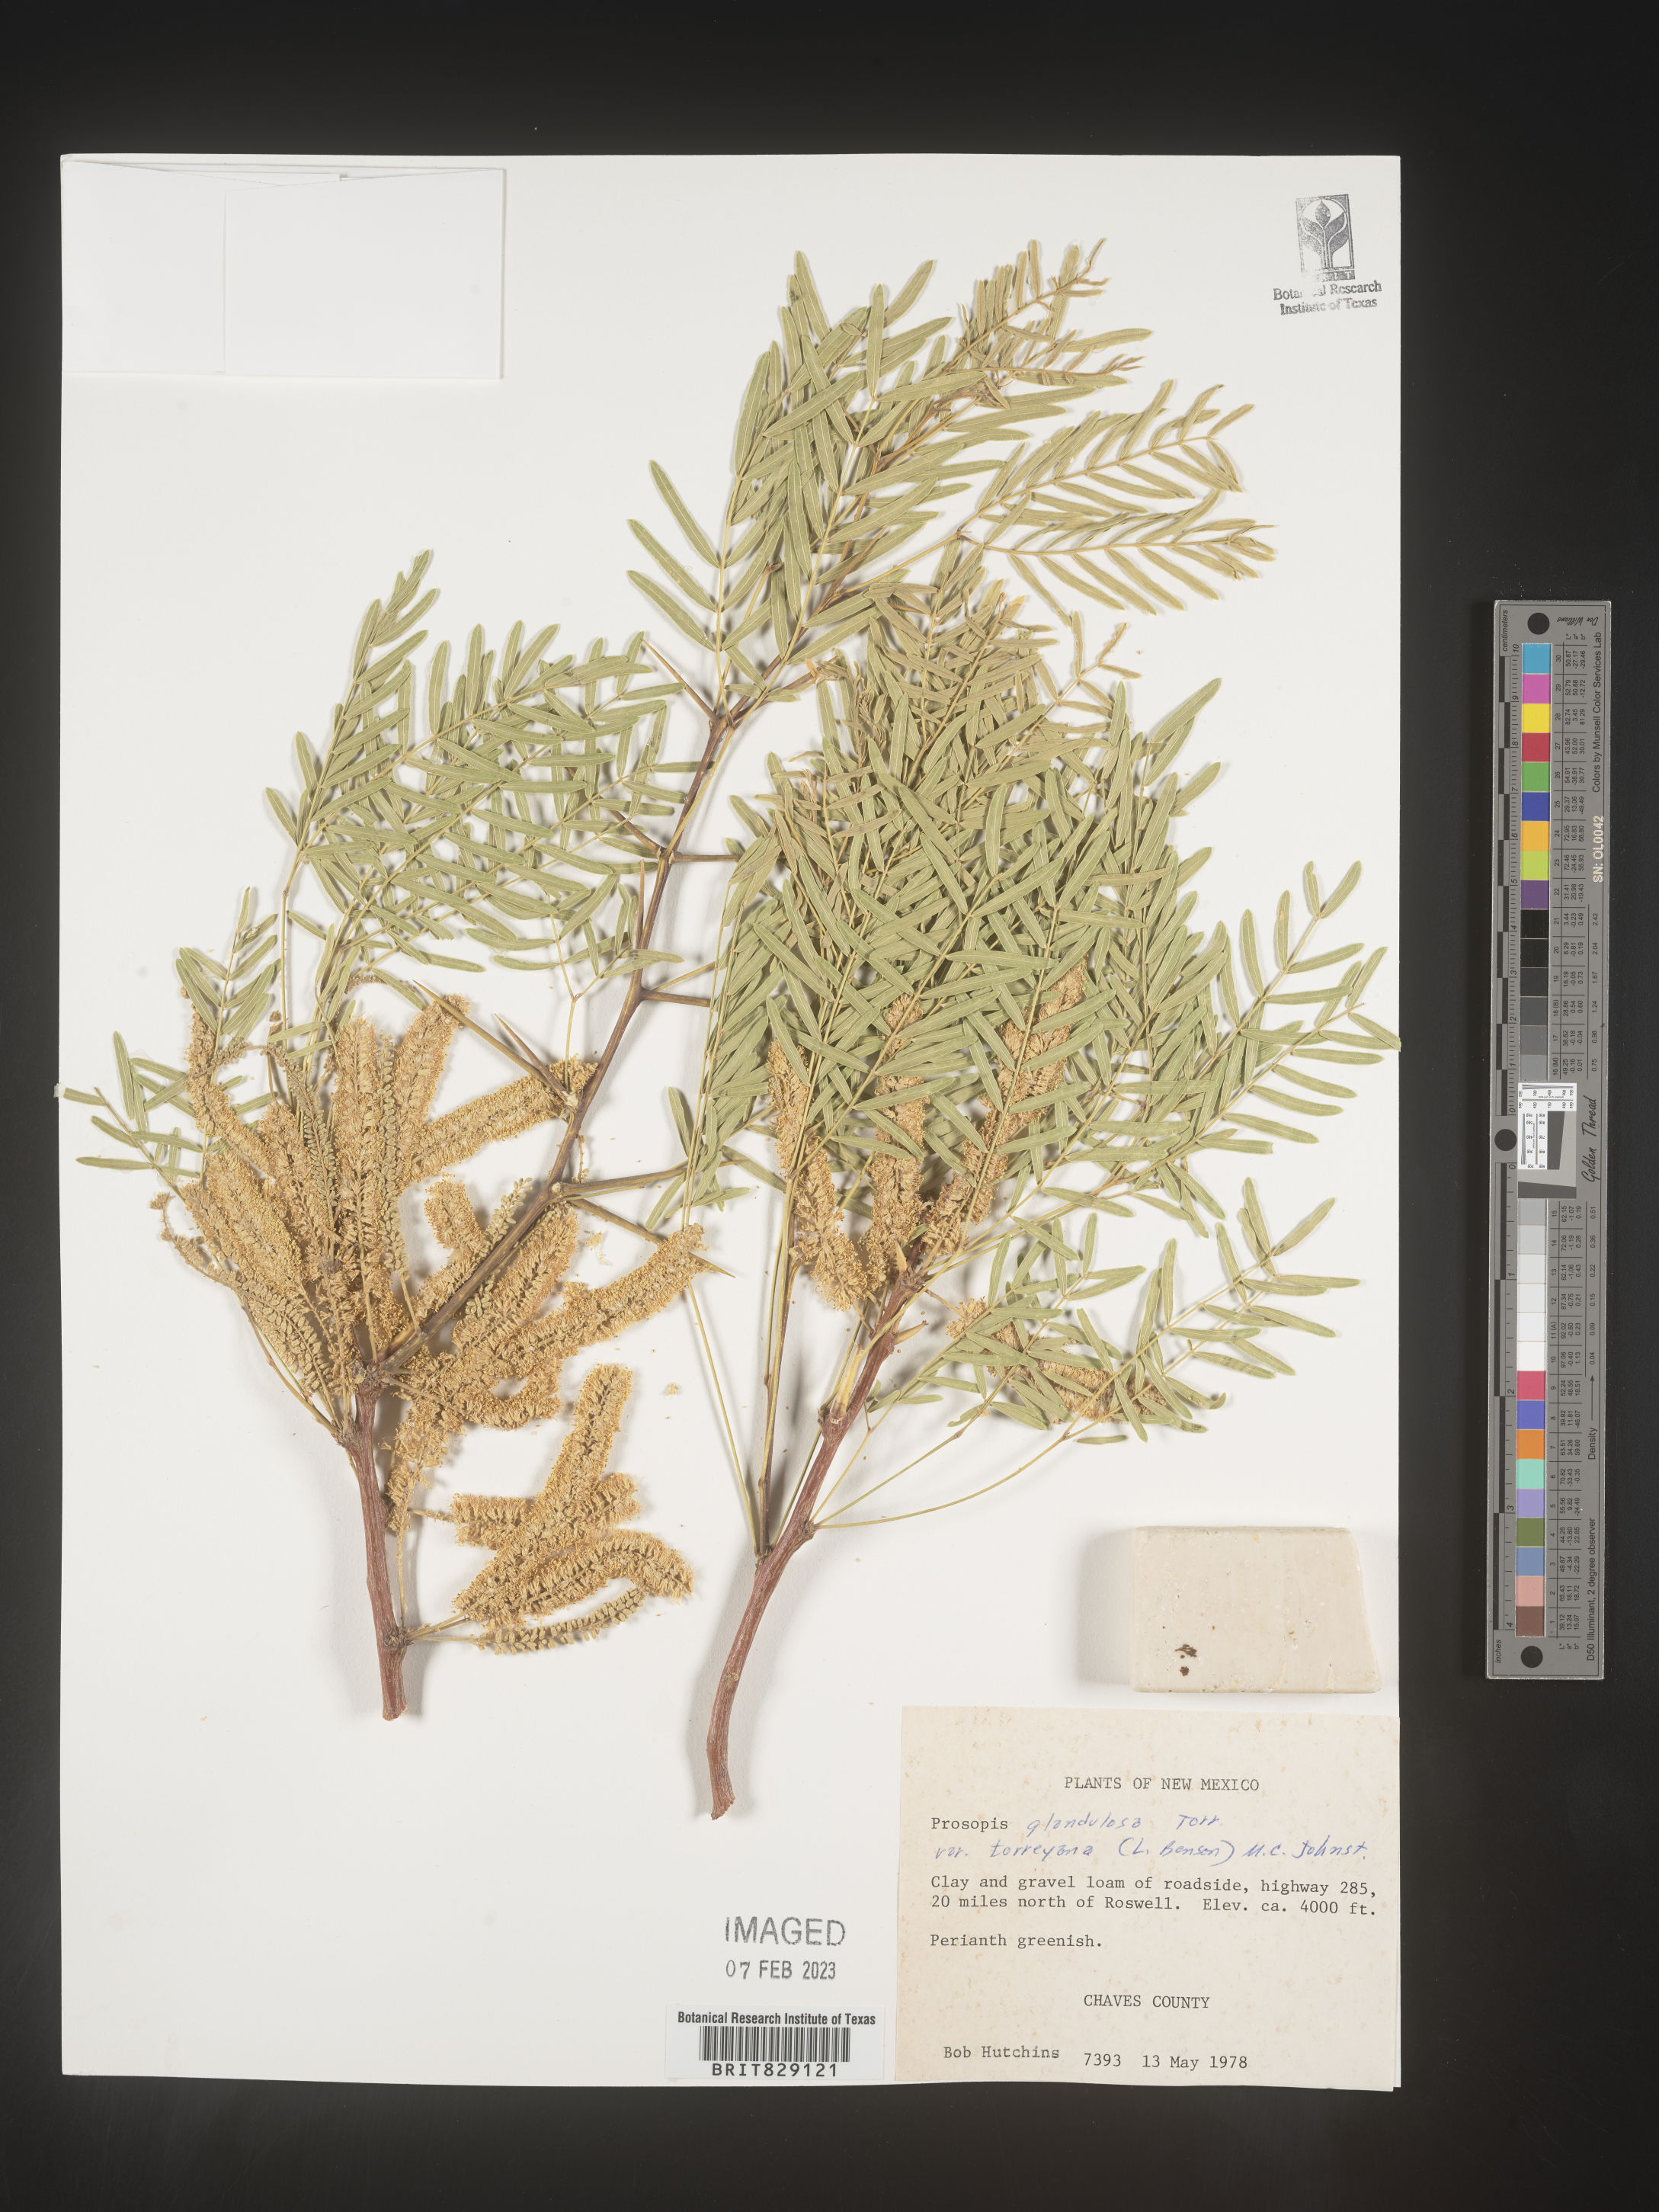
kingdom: Plantae
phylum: Tracheophyta
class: Magnoliopsida
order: Fabales
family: Fabaceae
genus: Prosopis
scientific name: Prosopis glandulosa
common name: Honey mesquite
